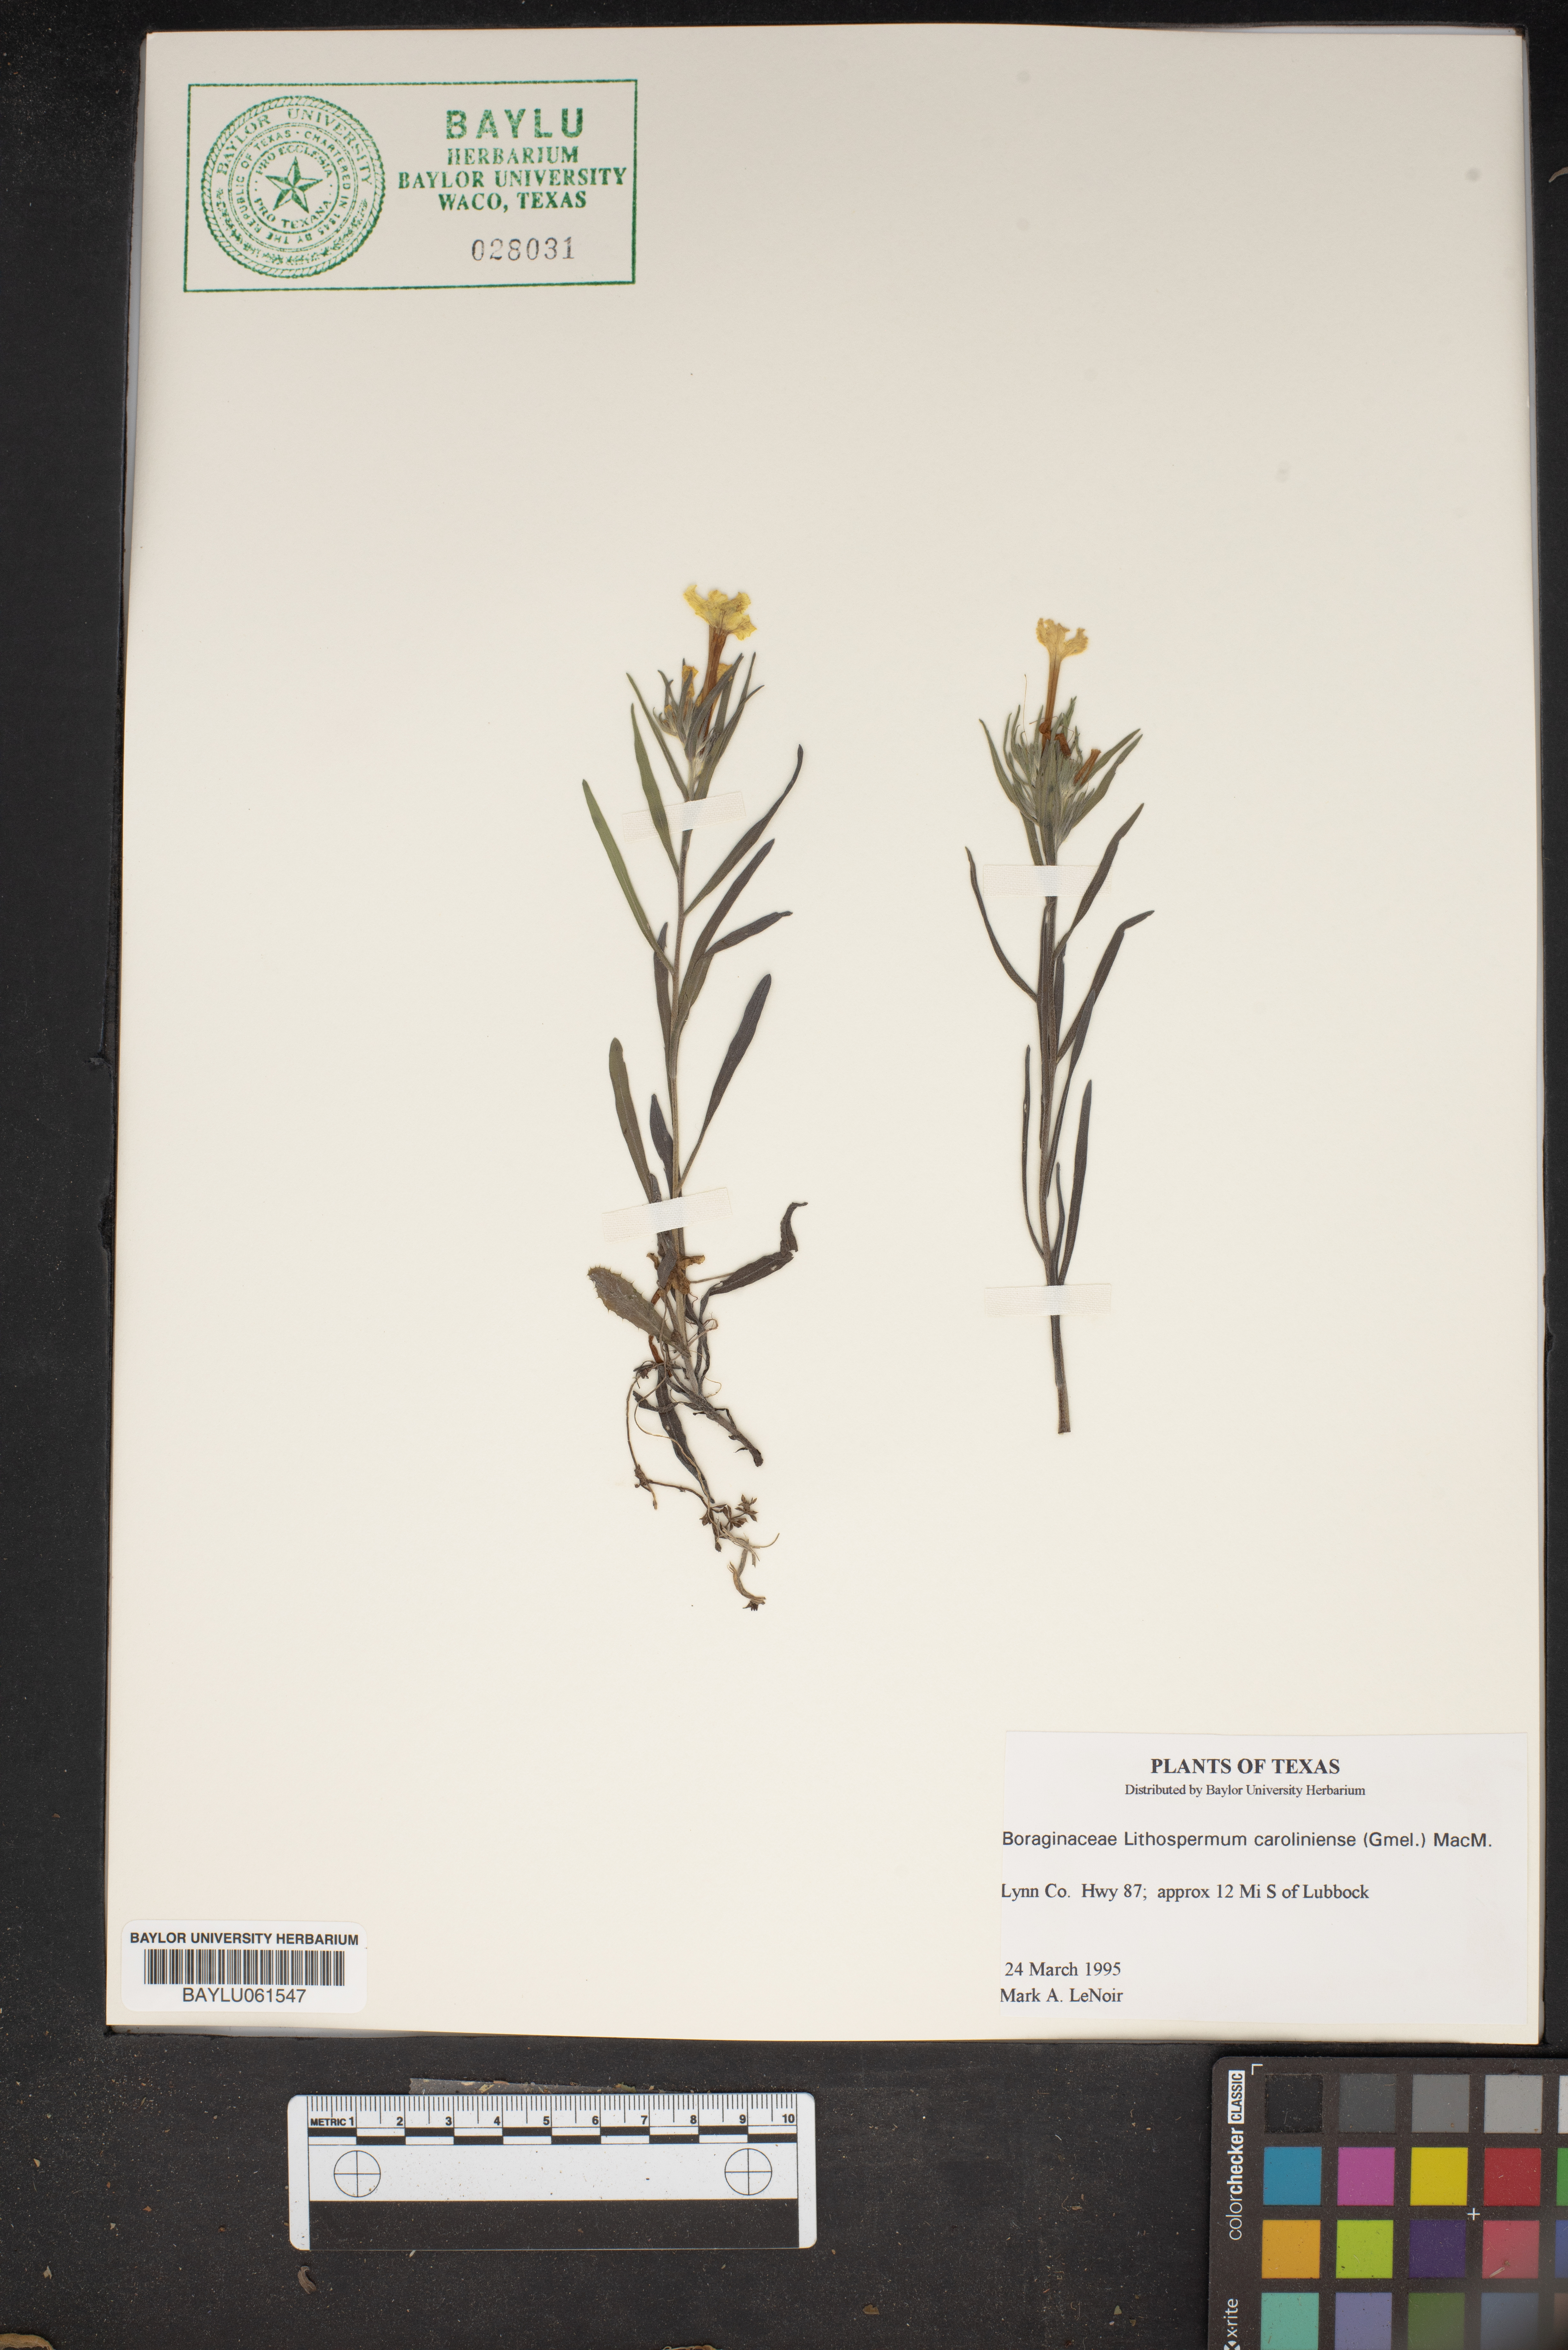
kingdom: Plantae
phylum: Tracheophyta
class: Magnoliopsida
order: Boraginales
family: Boraginaceae
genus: Lithospermum
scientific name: Lithospermum caroliniense
